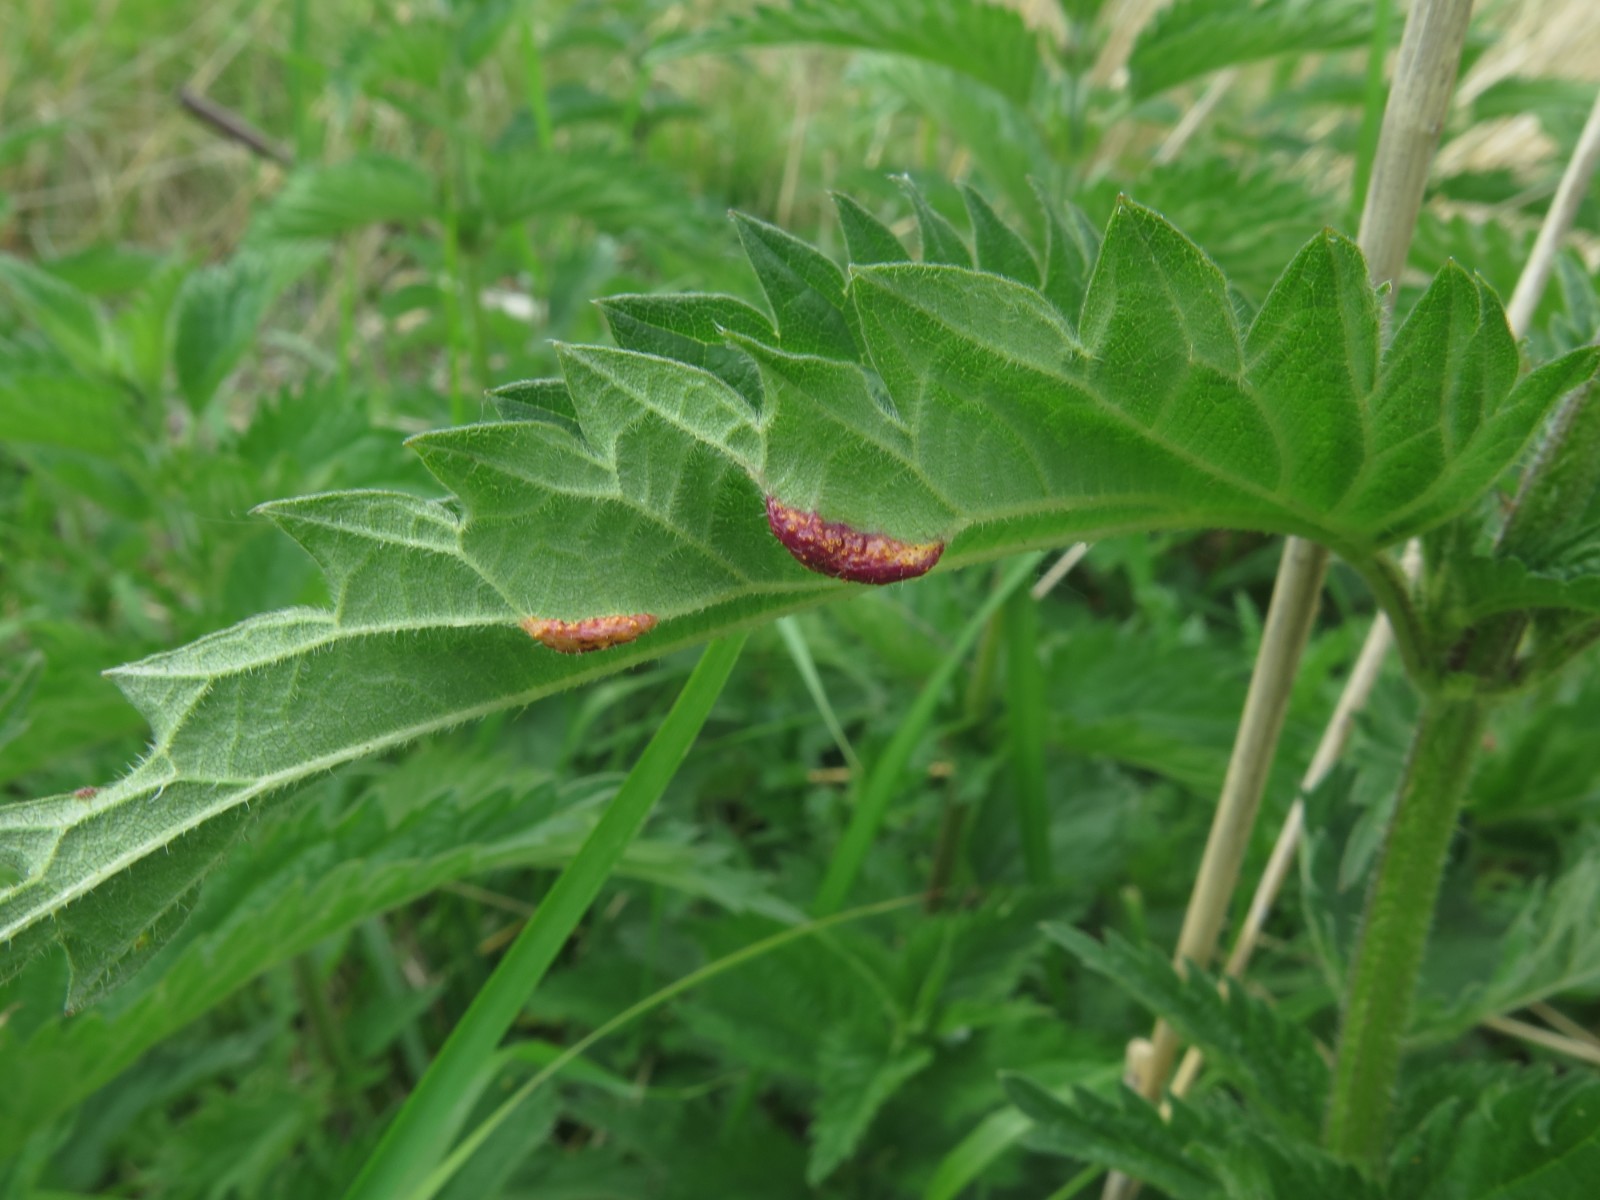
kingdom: Fungi
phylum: Basidiomycota
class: Pucciniomycetes
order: Pucciniales
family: Pucciniaceae
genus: Puccinia
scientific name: Puccinia urticata
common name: nældegalle-tvecellerust
